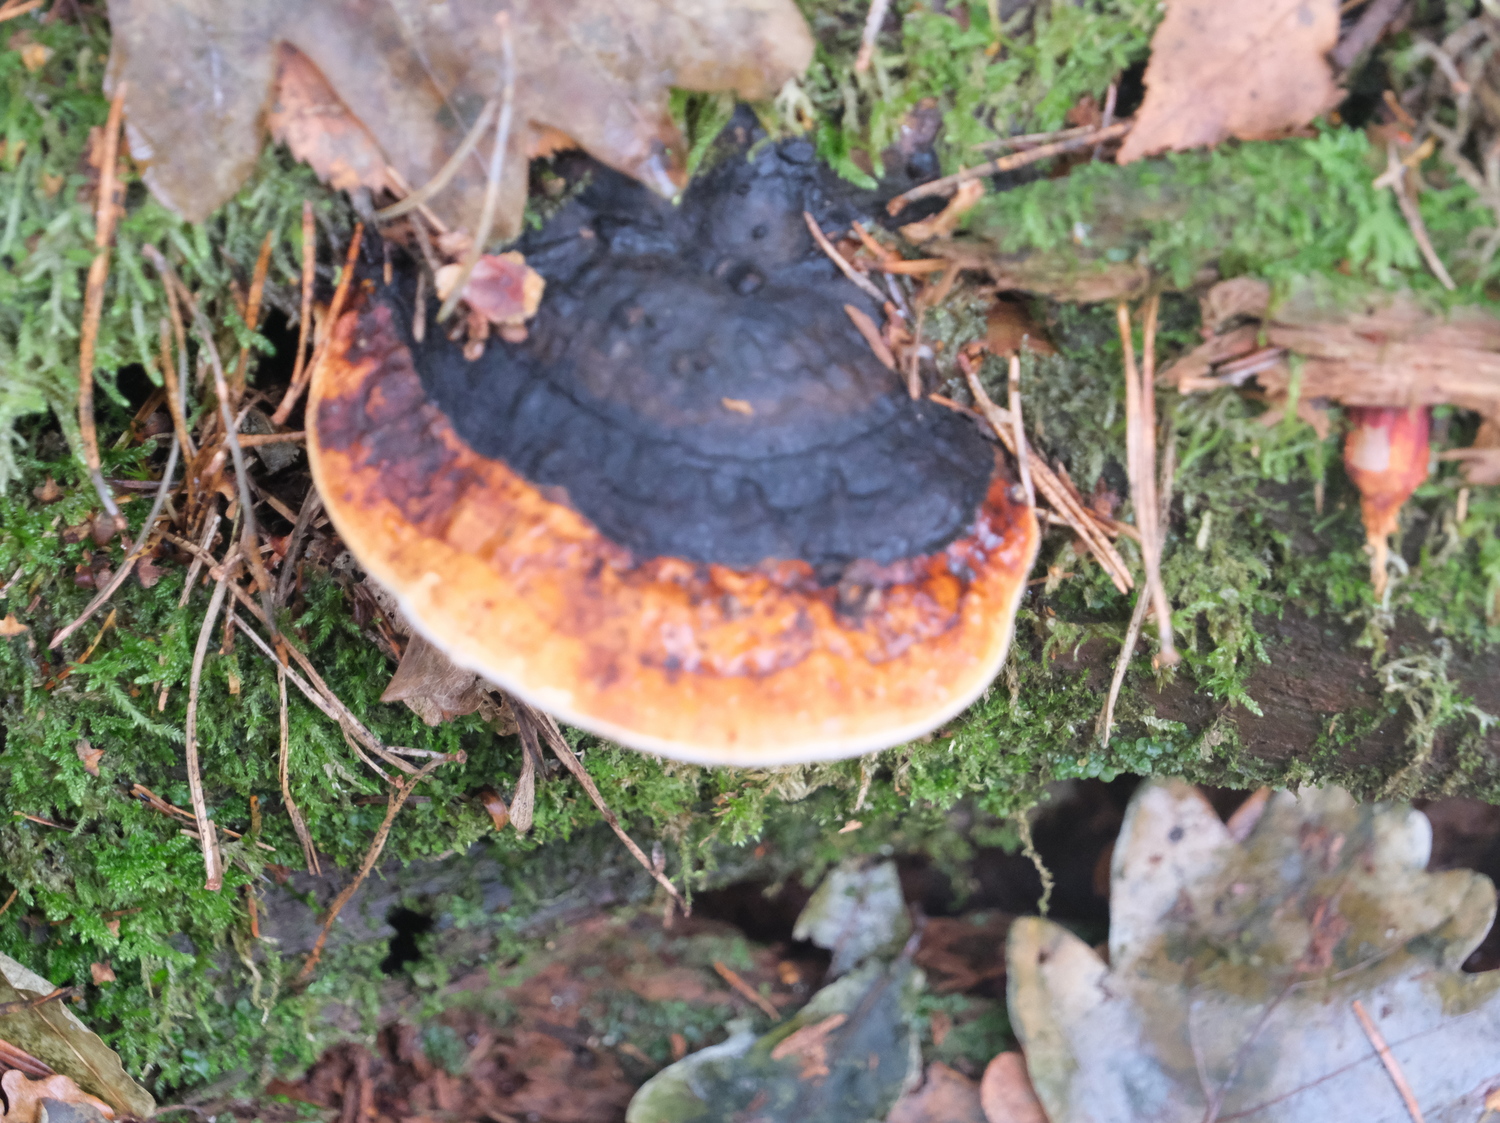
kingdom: Fungi
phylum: Basidiomycota
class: Agaricomycetes
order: Polyporales
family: Fomitopsidaceae
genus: Fomitopsis
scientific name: Fomitopsis pinicola
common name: randbæltet hovporesvamp
